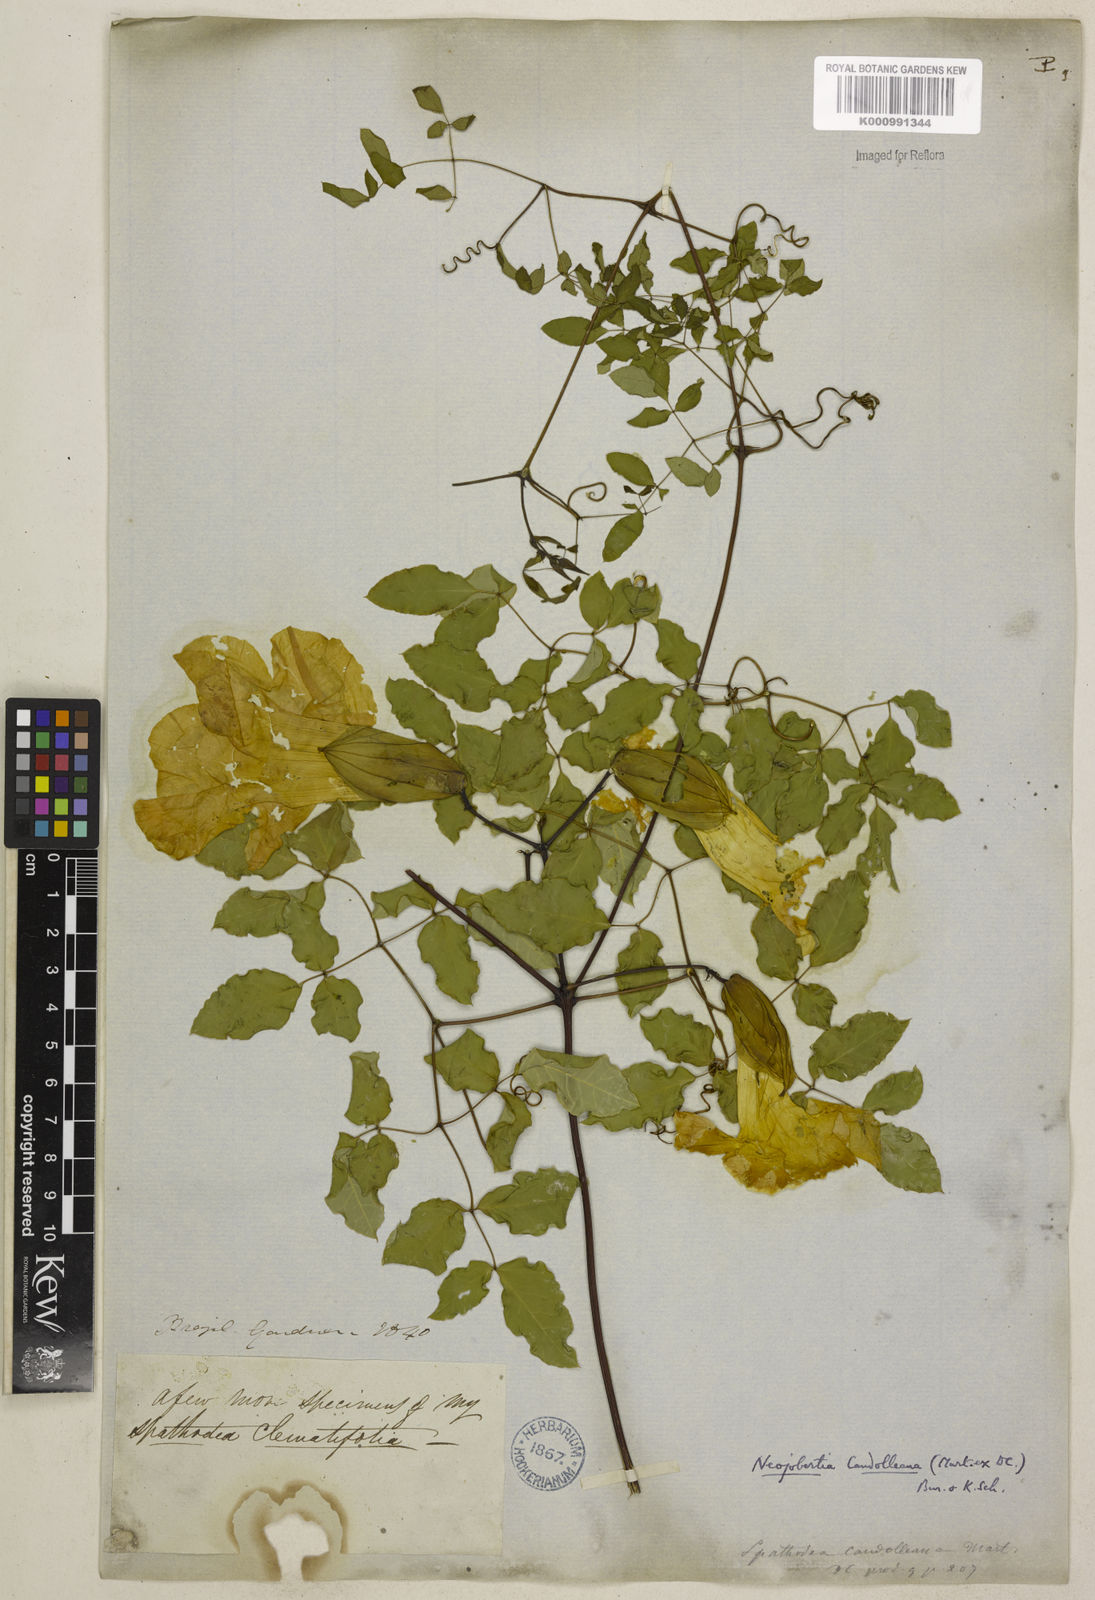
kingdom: Plantae
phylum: Tracheophyta
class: Magnoliopsida
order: Lamiales
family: Bignoniaceae
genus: Adenocalymma
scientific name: Adenocalymma candolleanum
